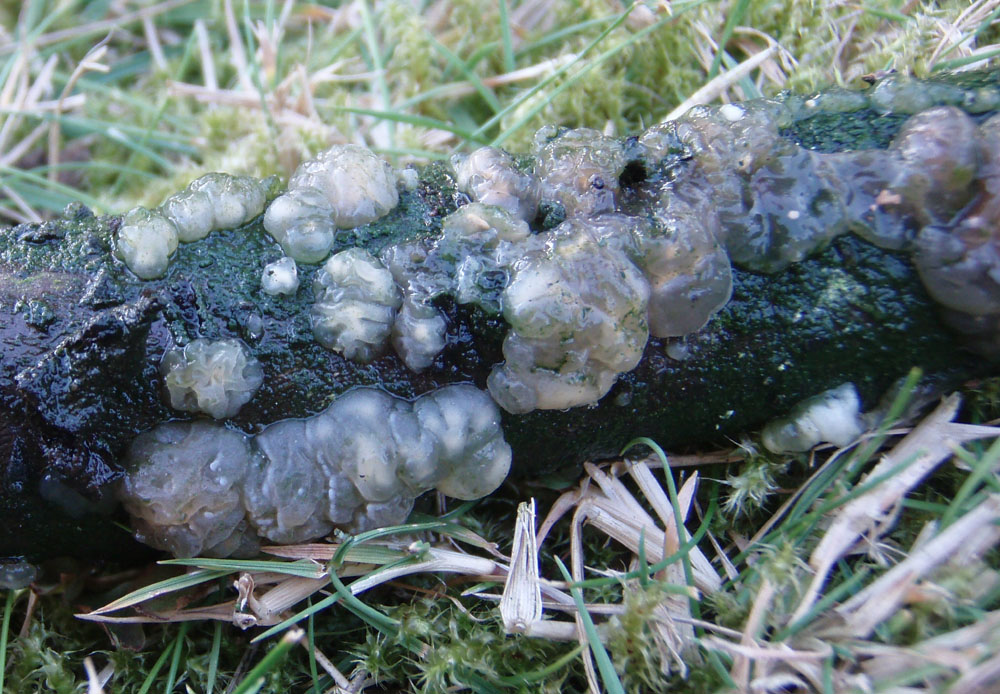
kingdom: Fungi
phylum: Basidiomycota
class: Agaricomycetes
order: Auriculariales
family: Hyaloriaceae
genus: Myxarium
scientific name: Myxarium nucleatum
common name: klar bævretop
